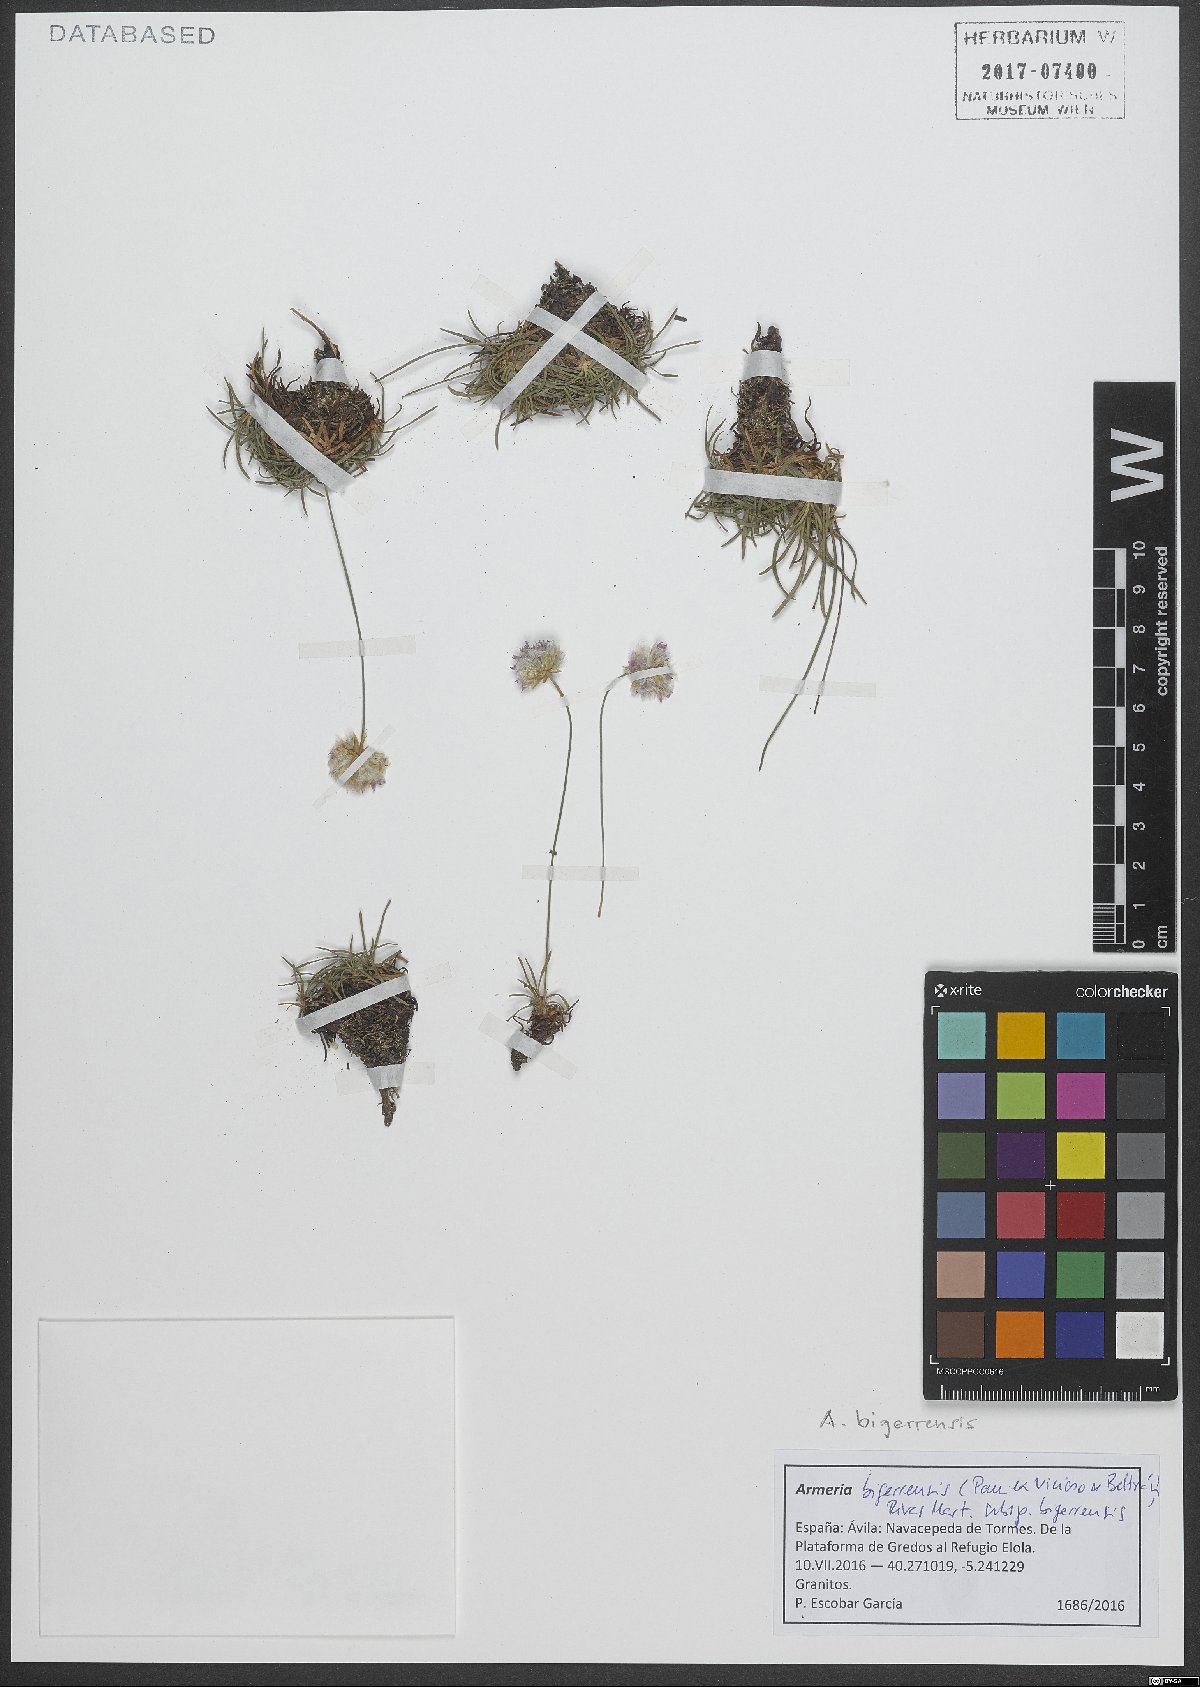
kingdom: Plantae
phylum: Tracheophyta
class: Magnoliopsida
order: Caryophyllales
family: Plumbaginaceae
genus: Armeria
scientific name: Armeria bigerrensis
